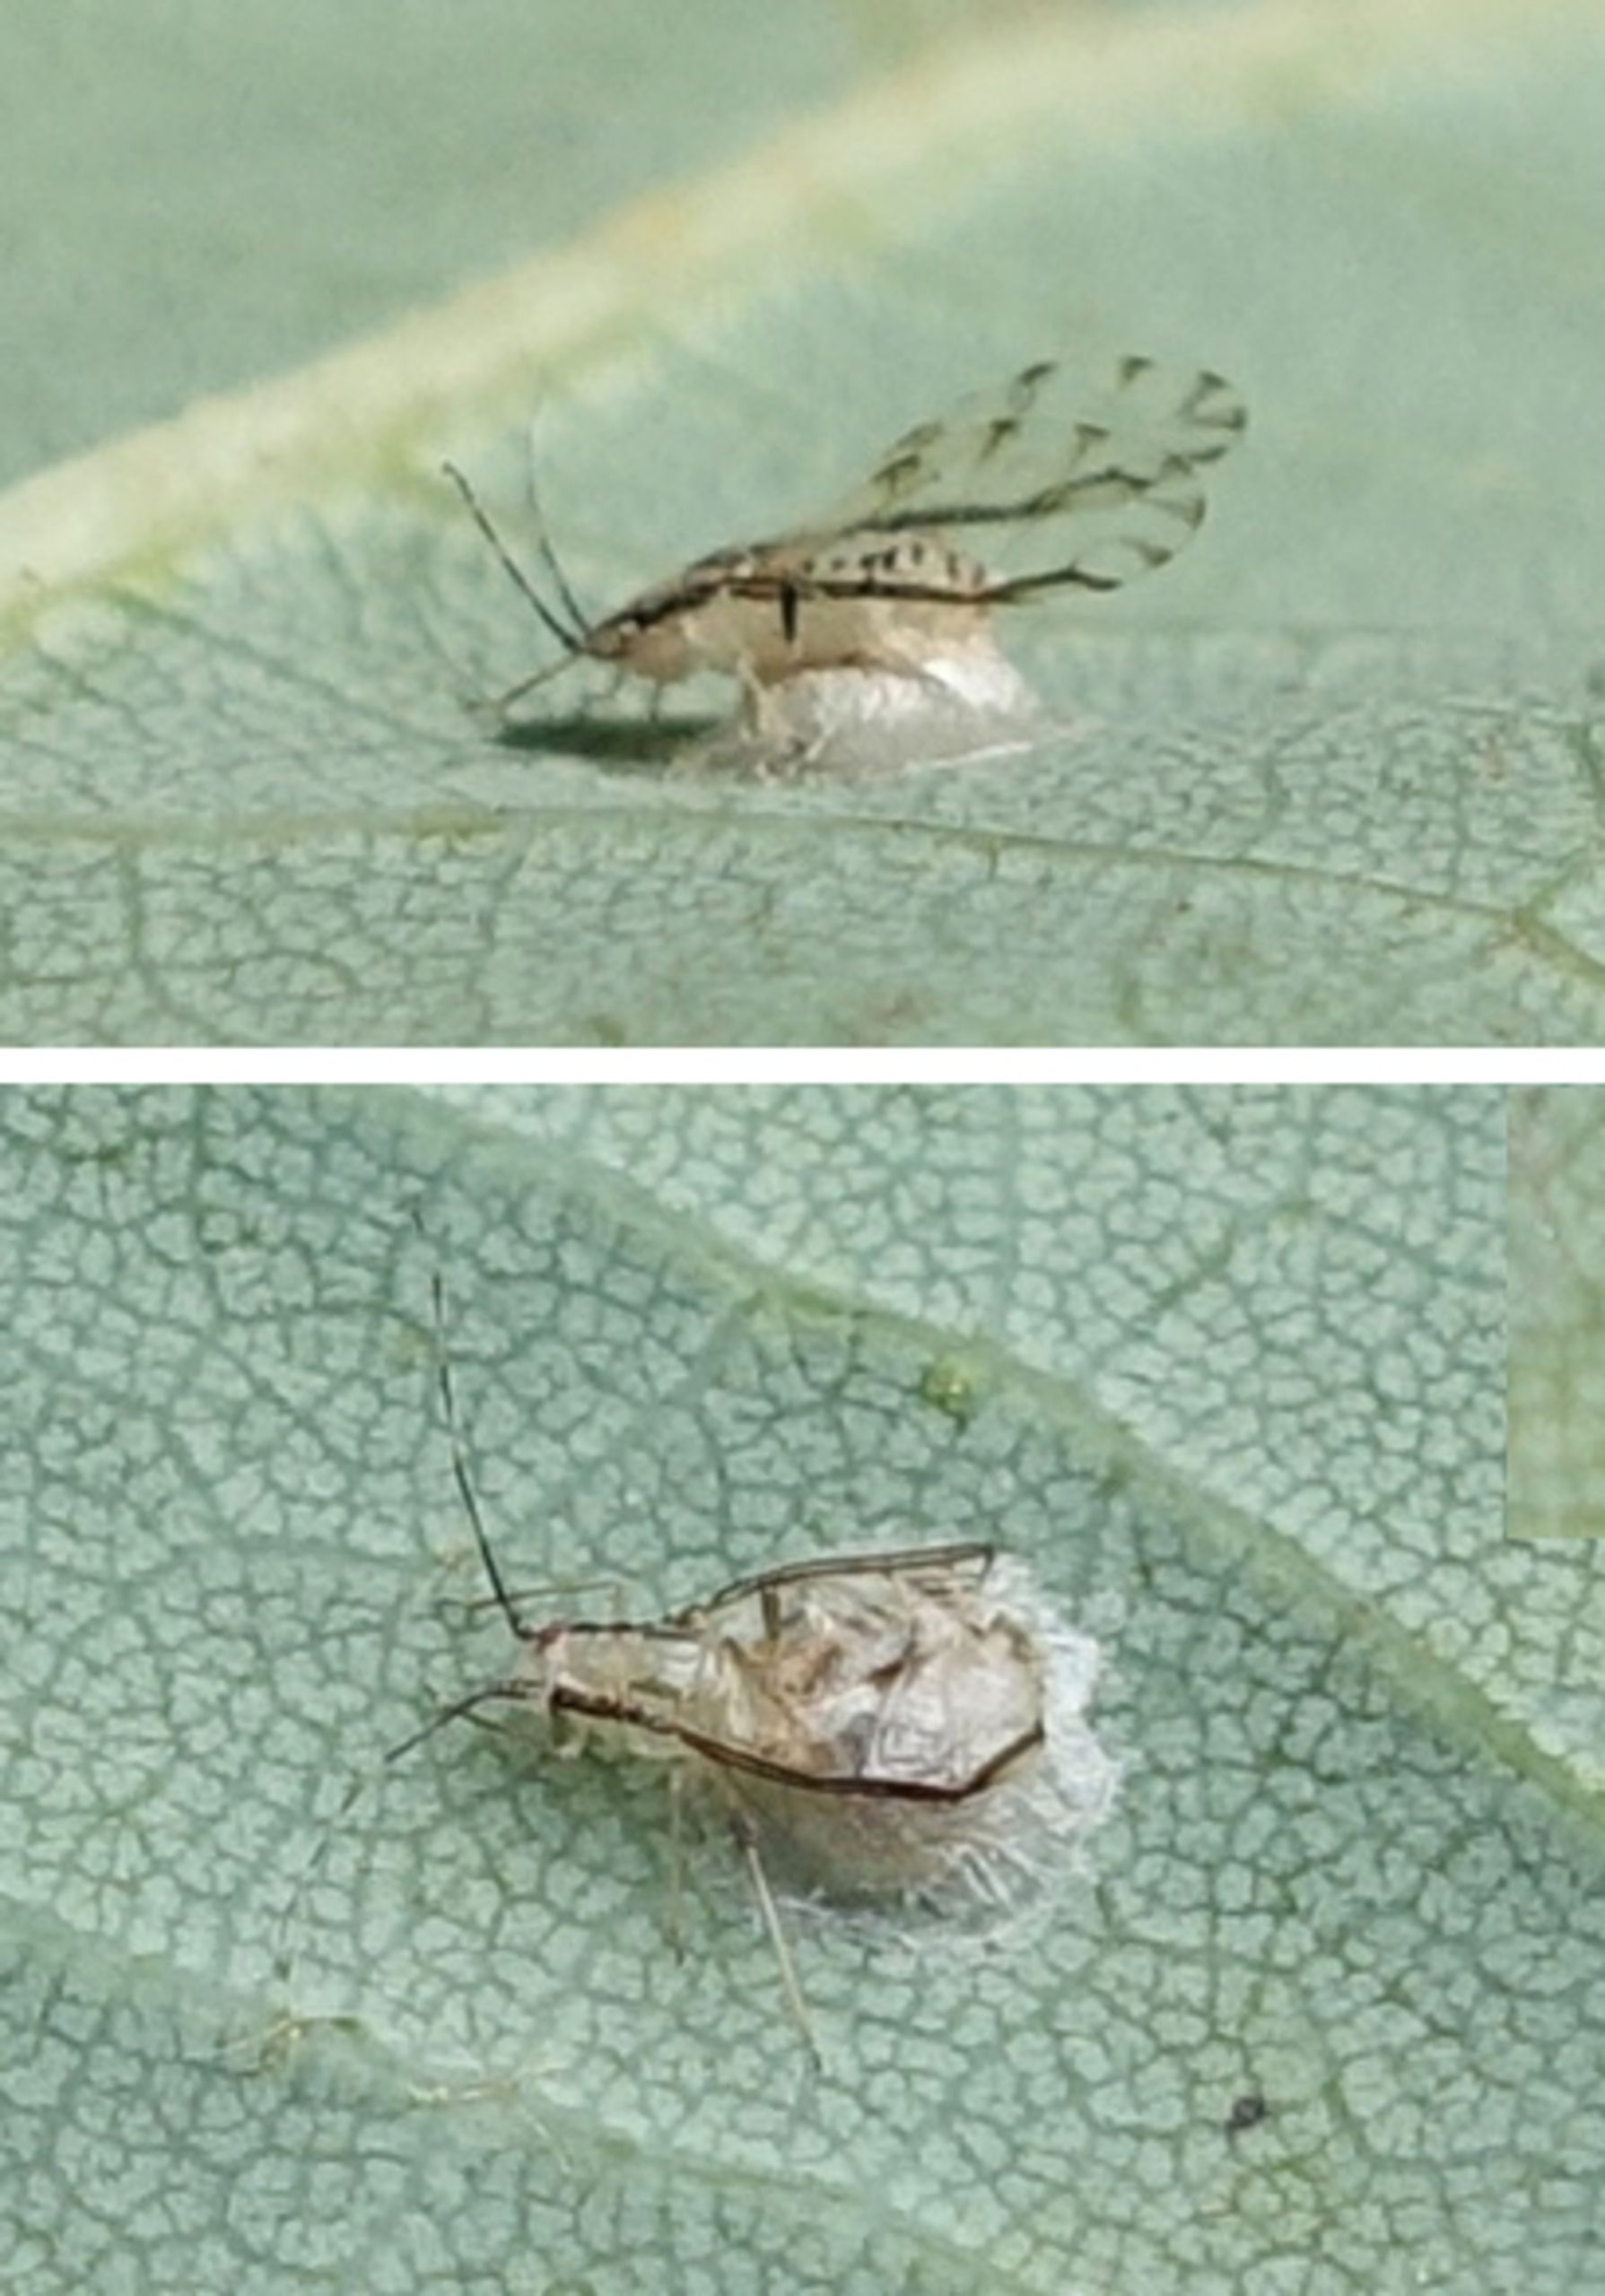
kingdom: Animalia
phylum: Arthropoda
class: Insecta
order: Hemiptera
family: Aphididae
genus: Eucallipterus
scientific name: Eucallipterus tiliae
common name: Lindebladlus
